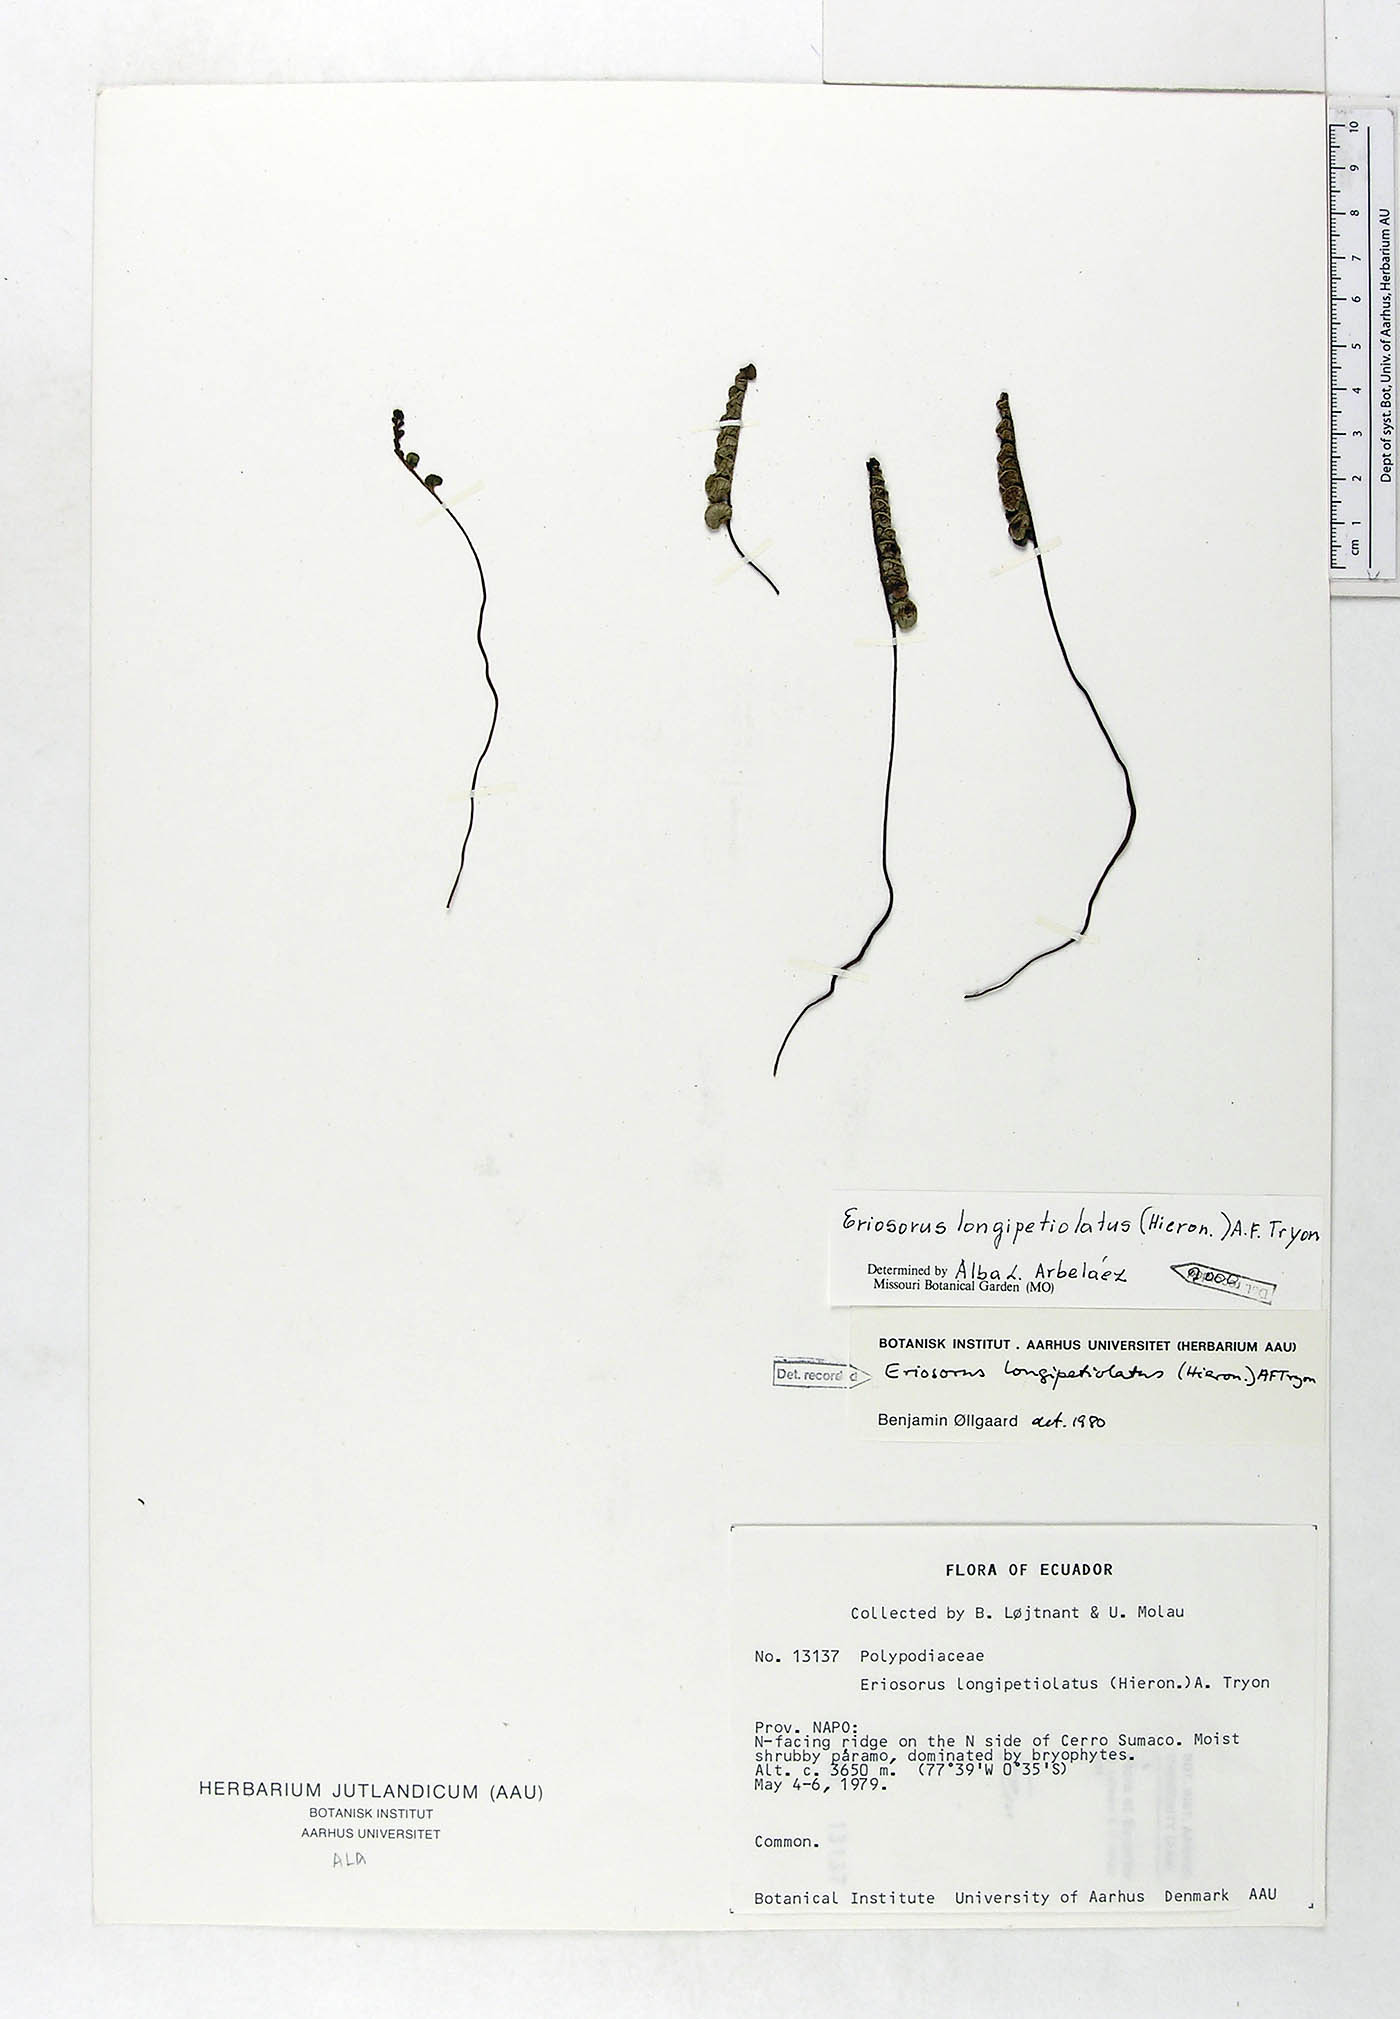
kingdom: Plantae
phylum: Tracheophyta
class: Polypodiopsida
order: Polypodiales
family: Pteridaceae
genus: Jamesonia
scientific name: Jamesonia longipetiolata
